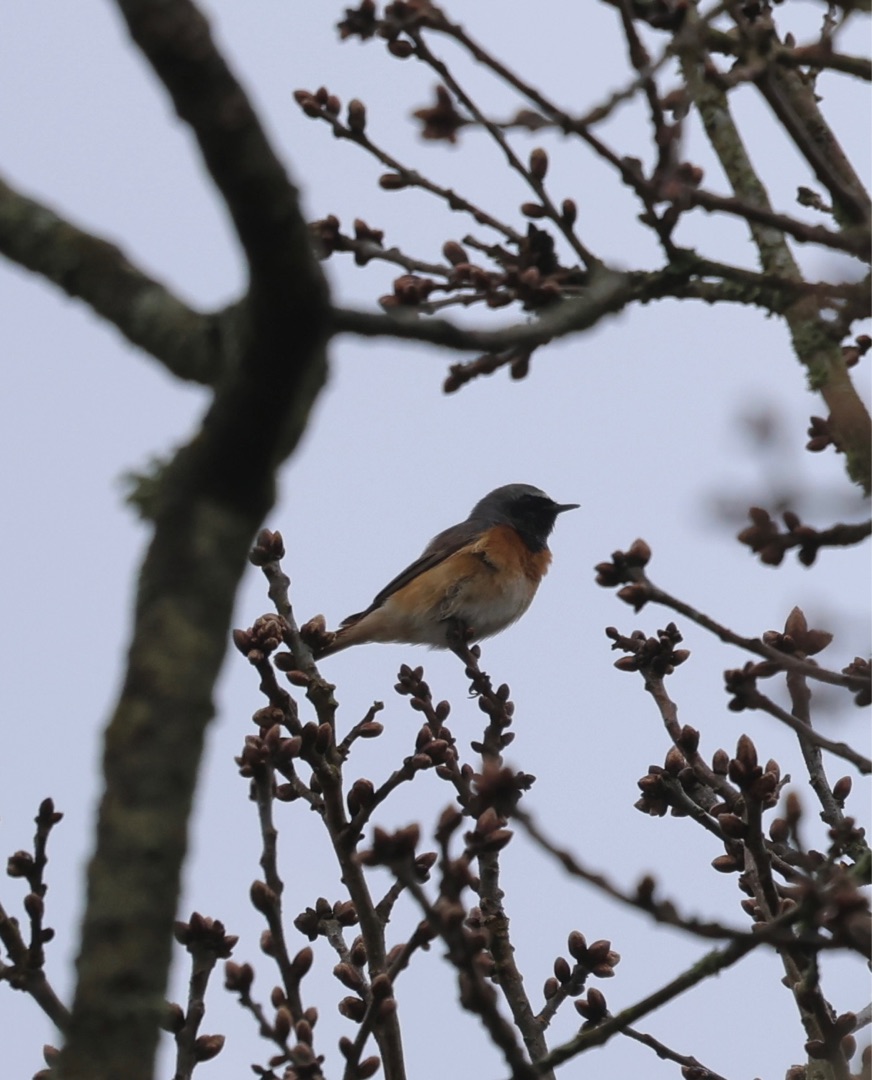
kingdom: Animalia
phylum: Chordata
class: Aves
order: Passeriformes
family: Muscicapidae
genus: Phoenicurus
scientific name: Phoenicurus phoenicurus
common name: Rødstjert
